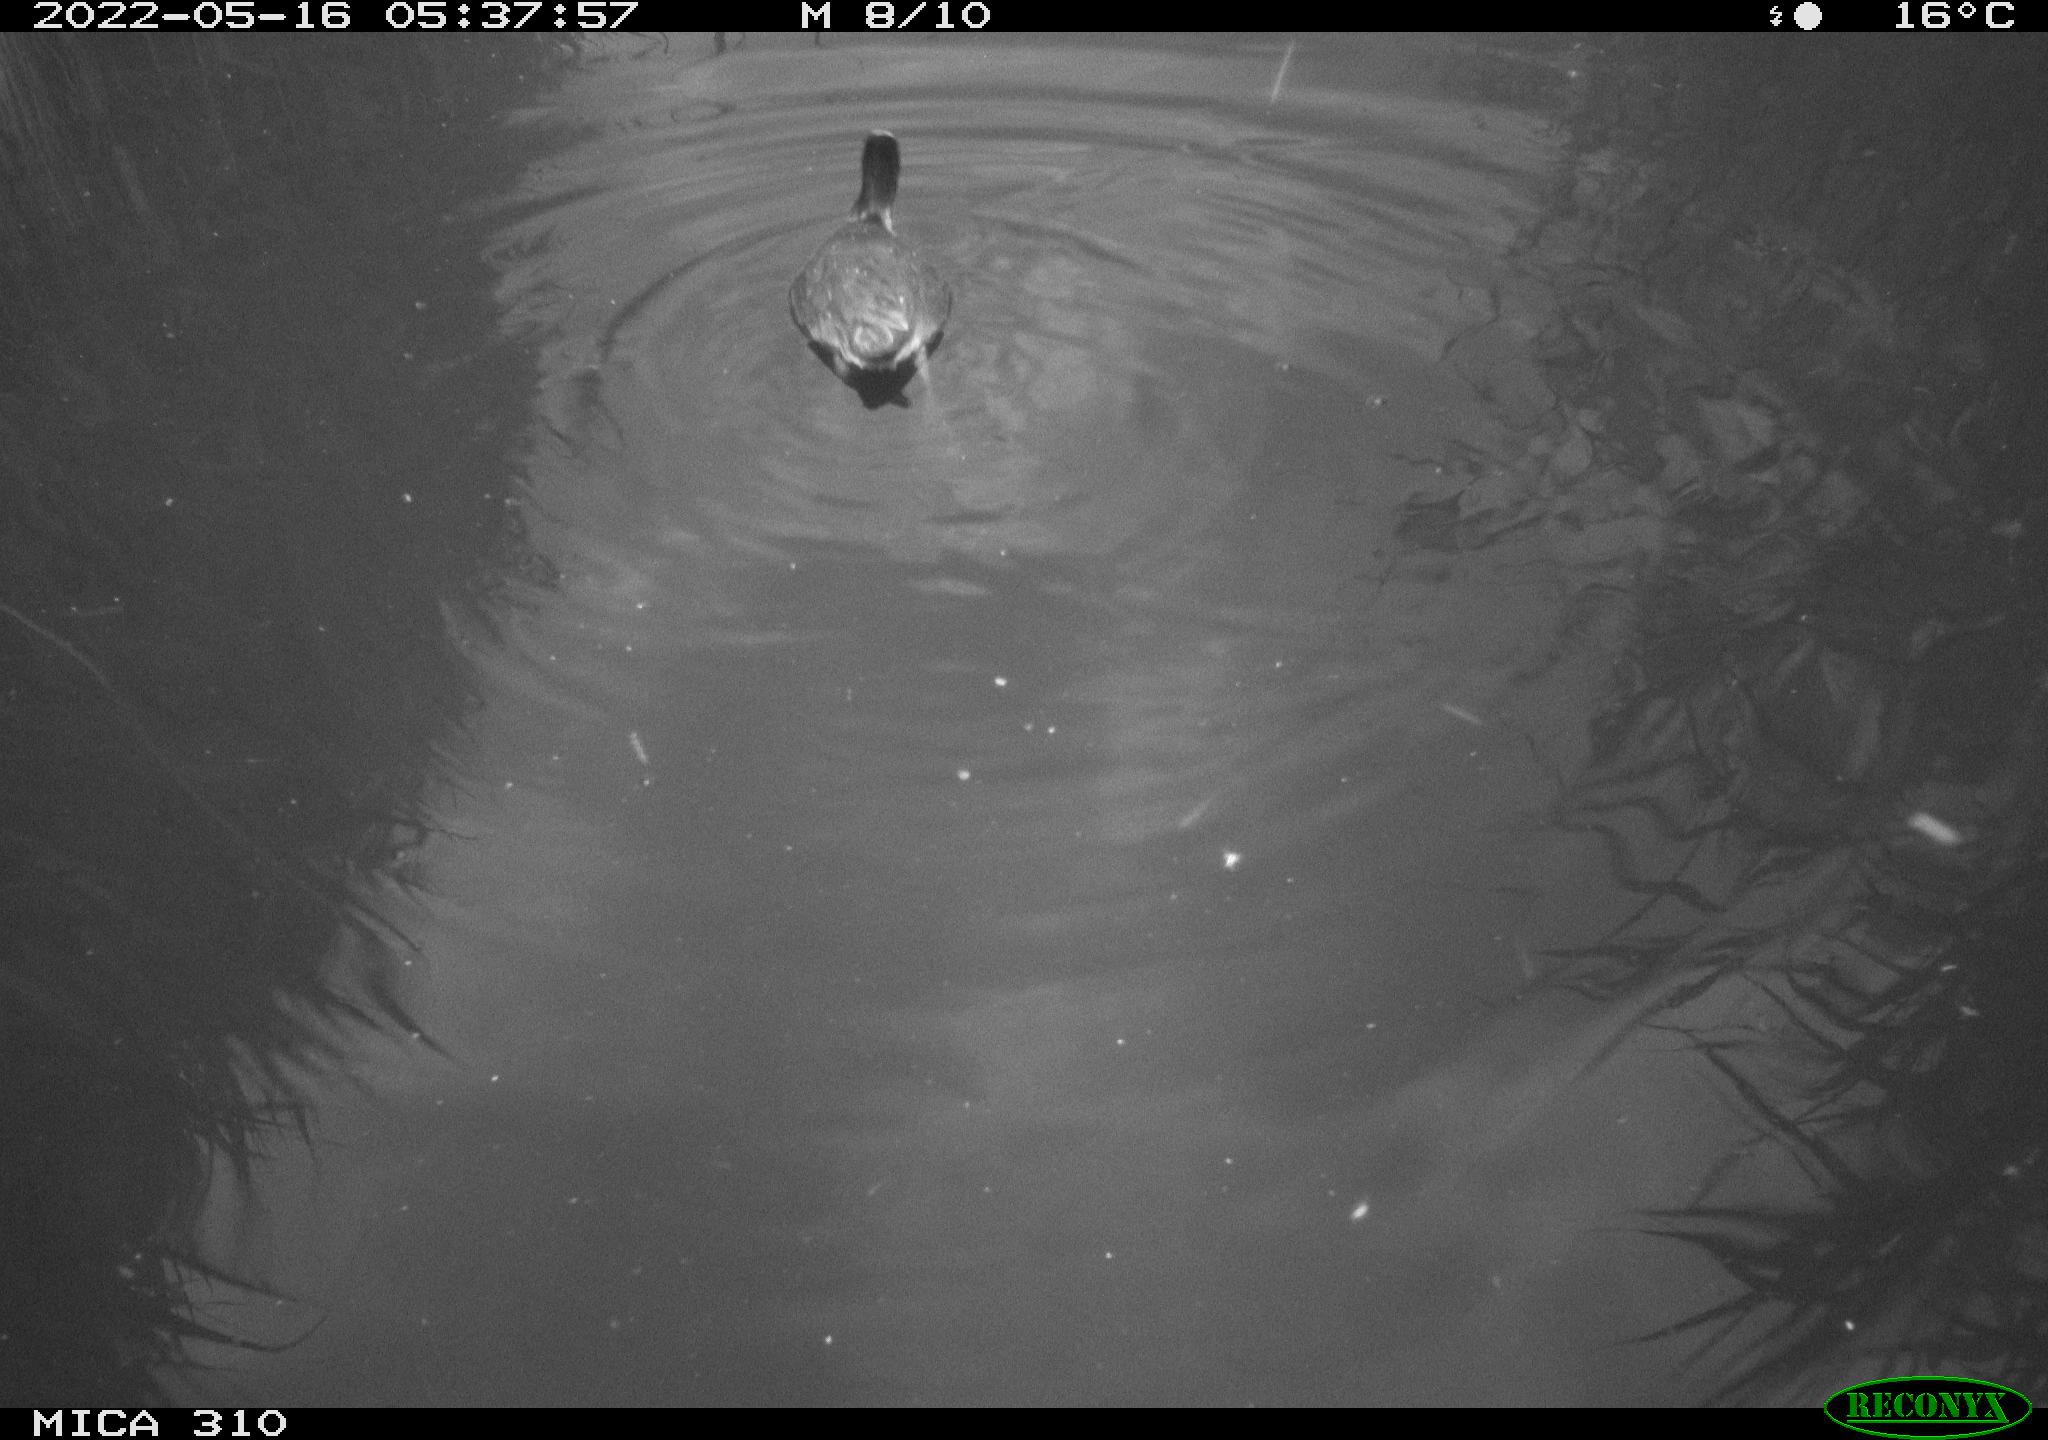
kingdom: Animalia
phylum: Chordata
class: Aves
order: Pelecaniformes
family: Ardeidae
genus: Ardea
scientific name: Ardea
